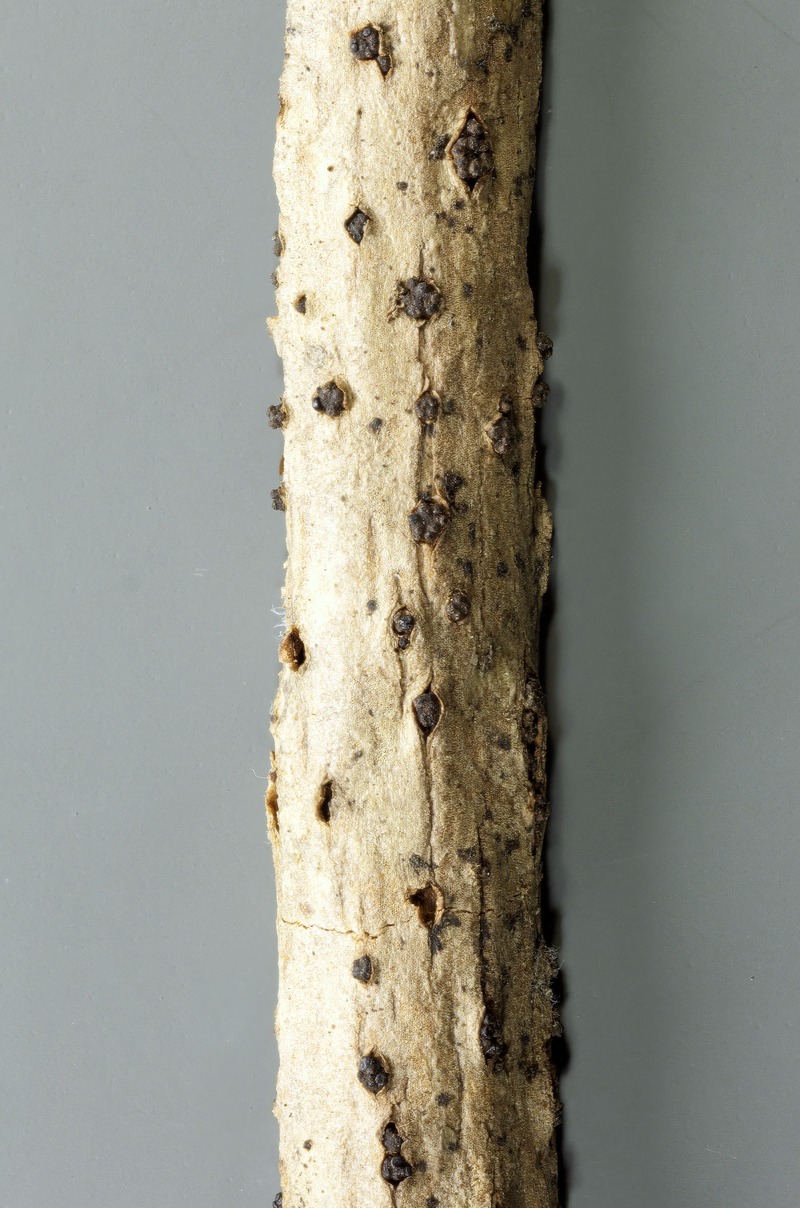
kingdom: Fungi
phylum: Ascomycota
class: Leotiomycetes
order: Helotiales
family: Godroniaceae
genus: Godronia
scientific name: Godronia viburni
